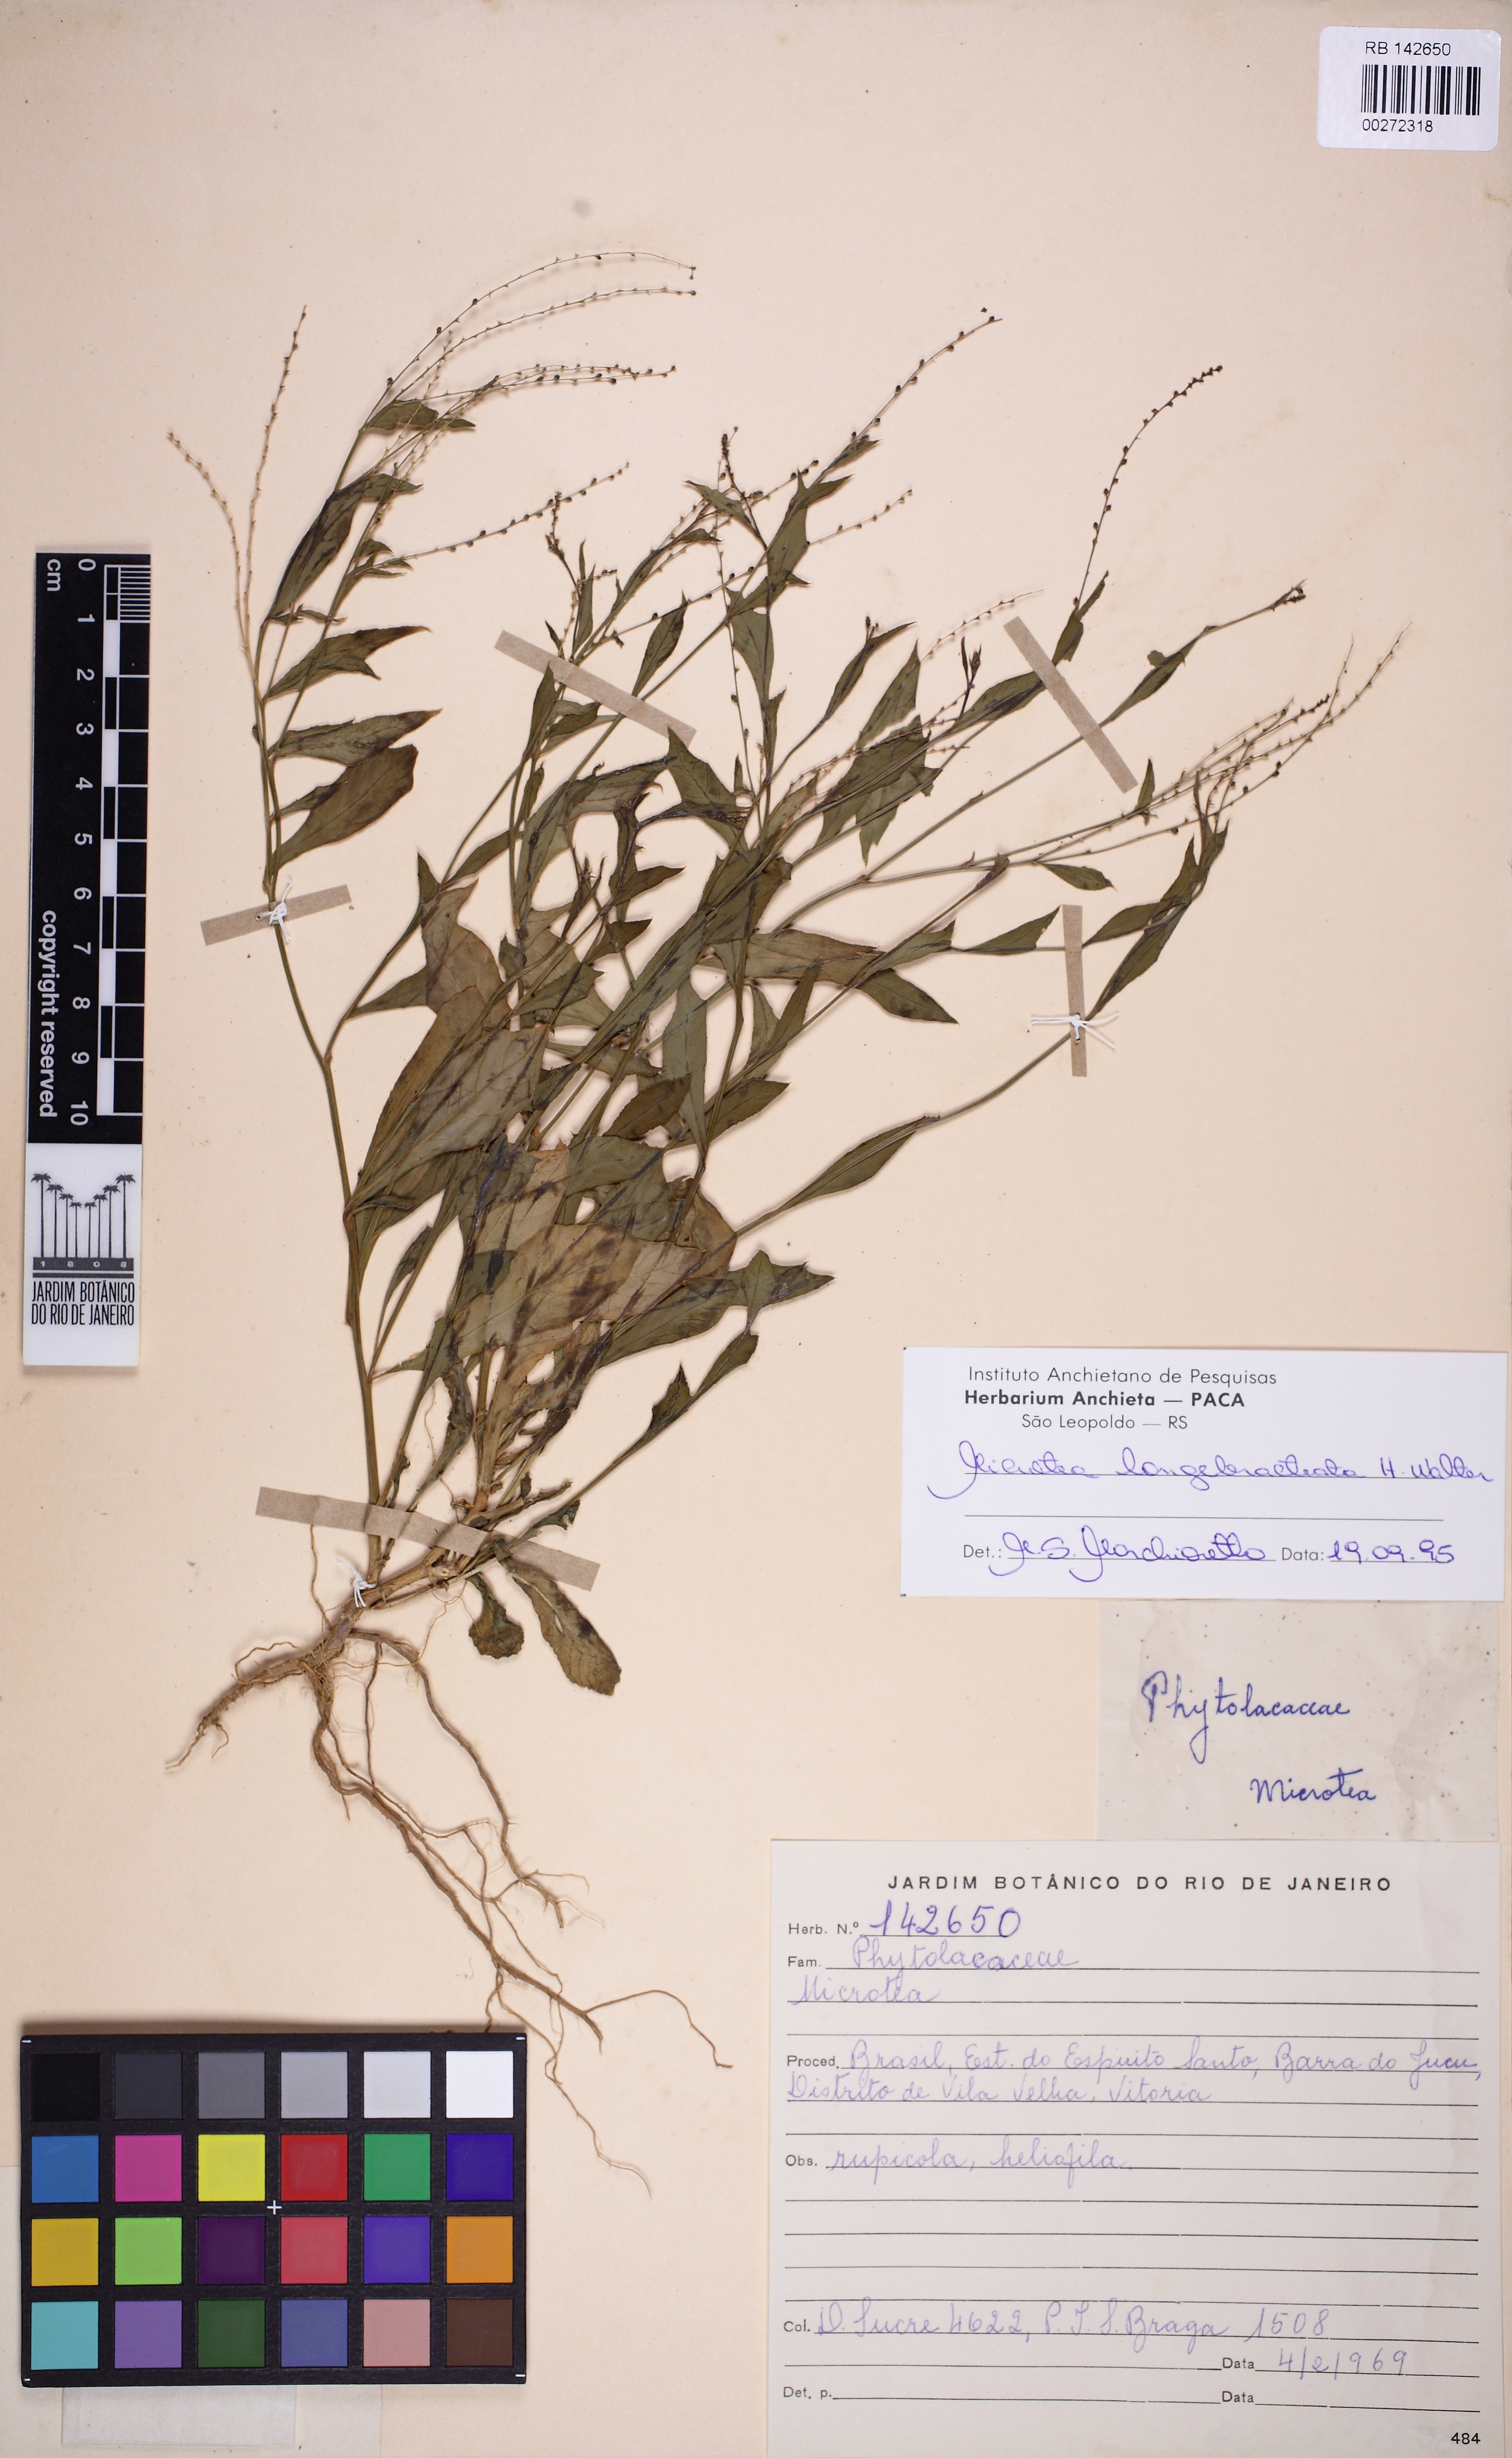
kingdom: Plantae
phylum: Tracheophyta
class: Magnoliopsida
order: Caryophyllales
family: Microteaceae
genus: Microtea
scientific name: Microtea celosioides
